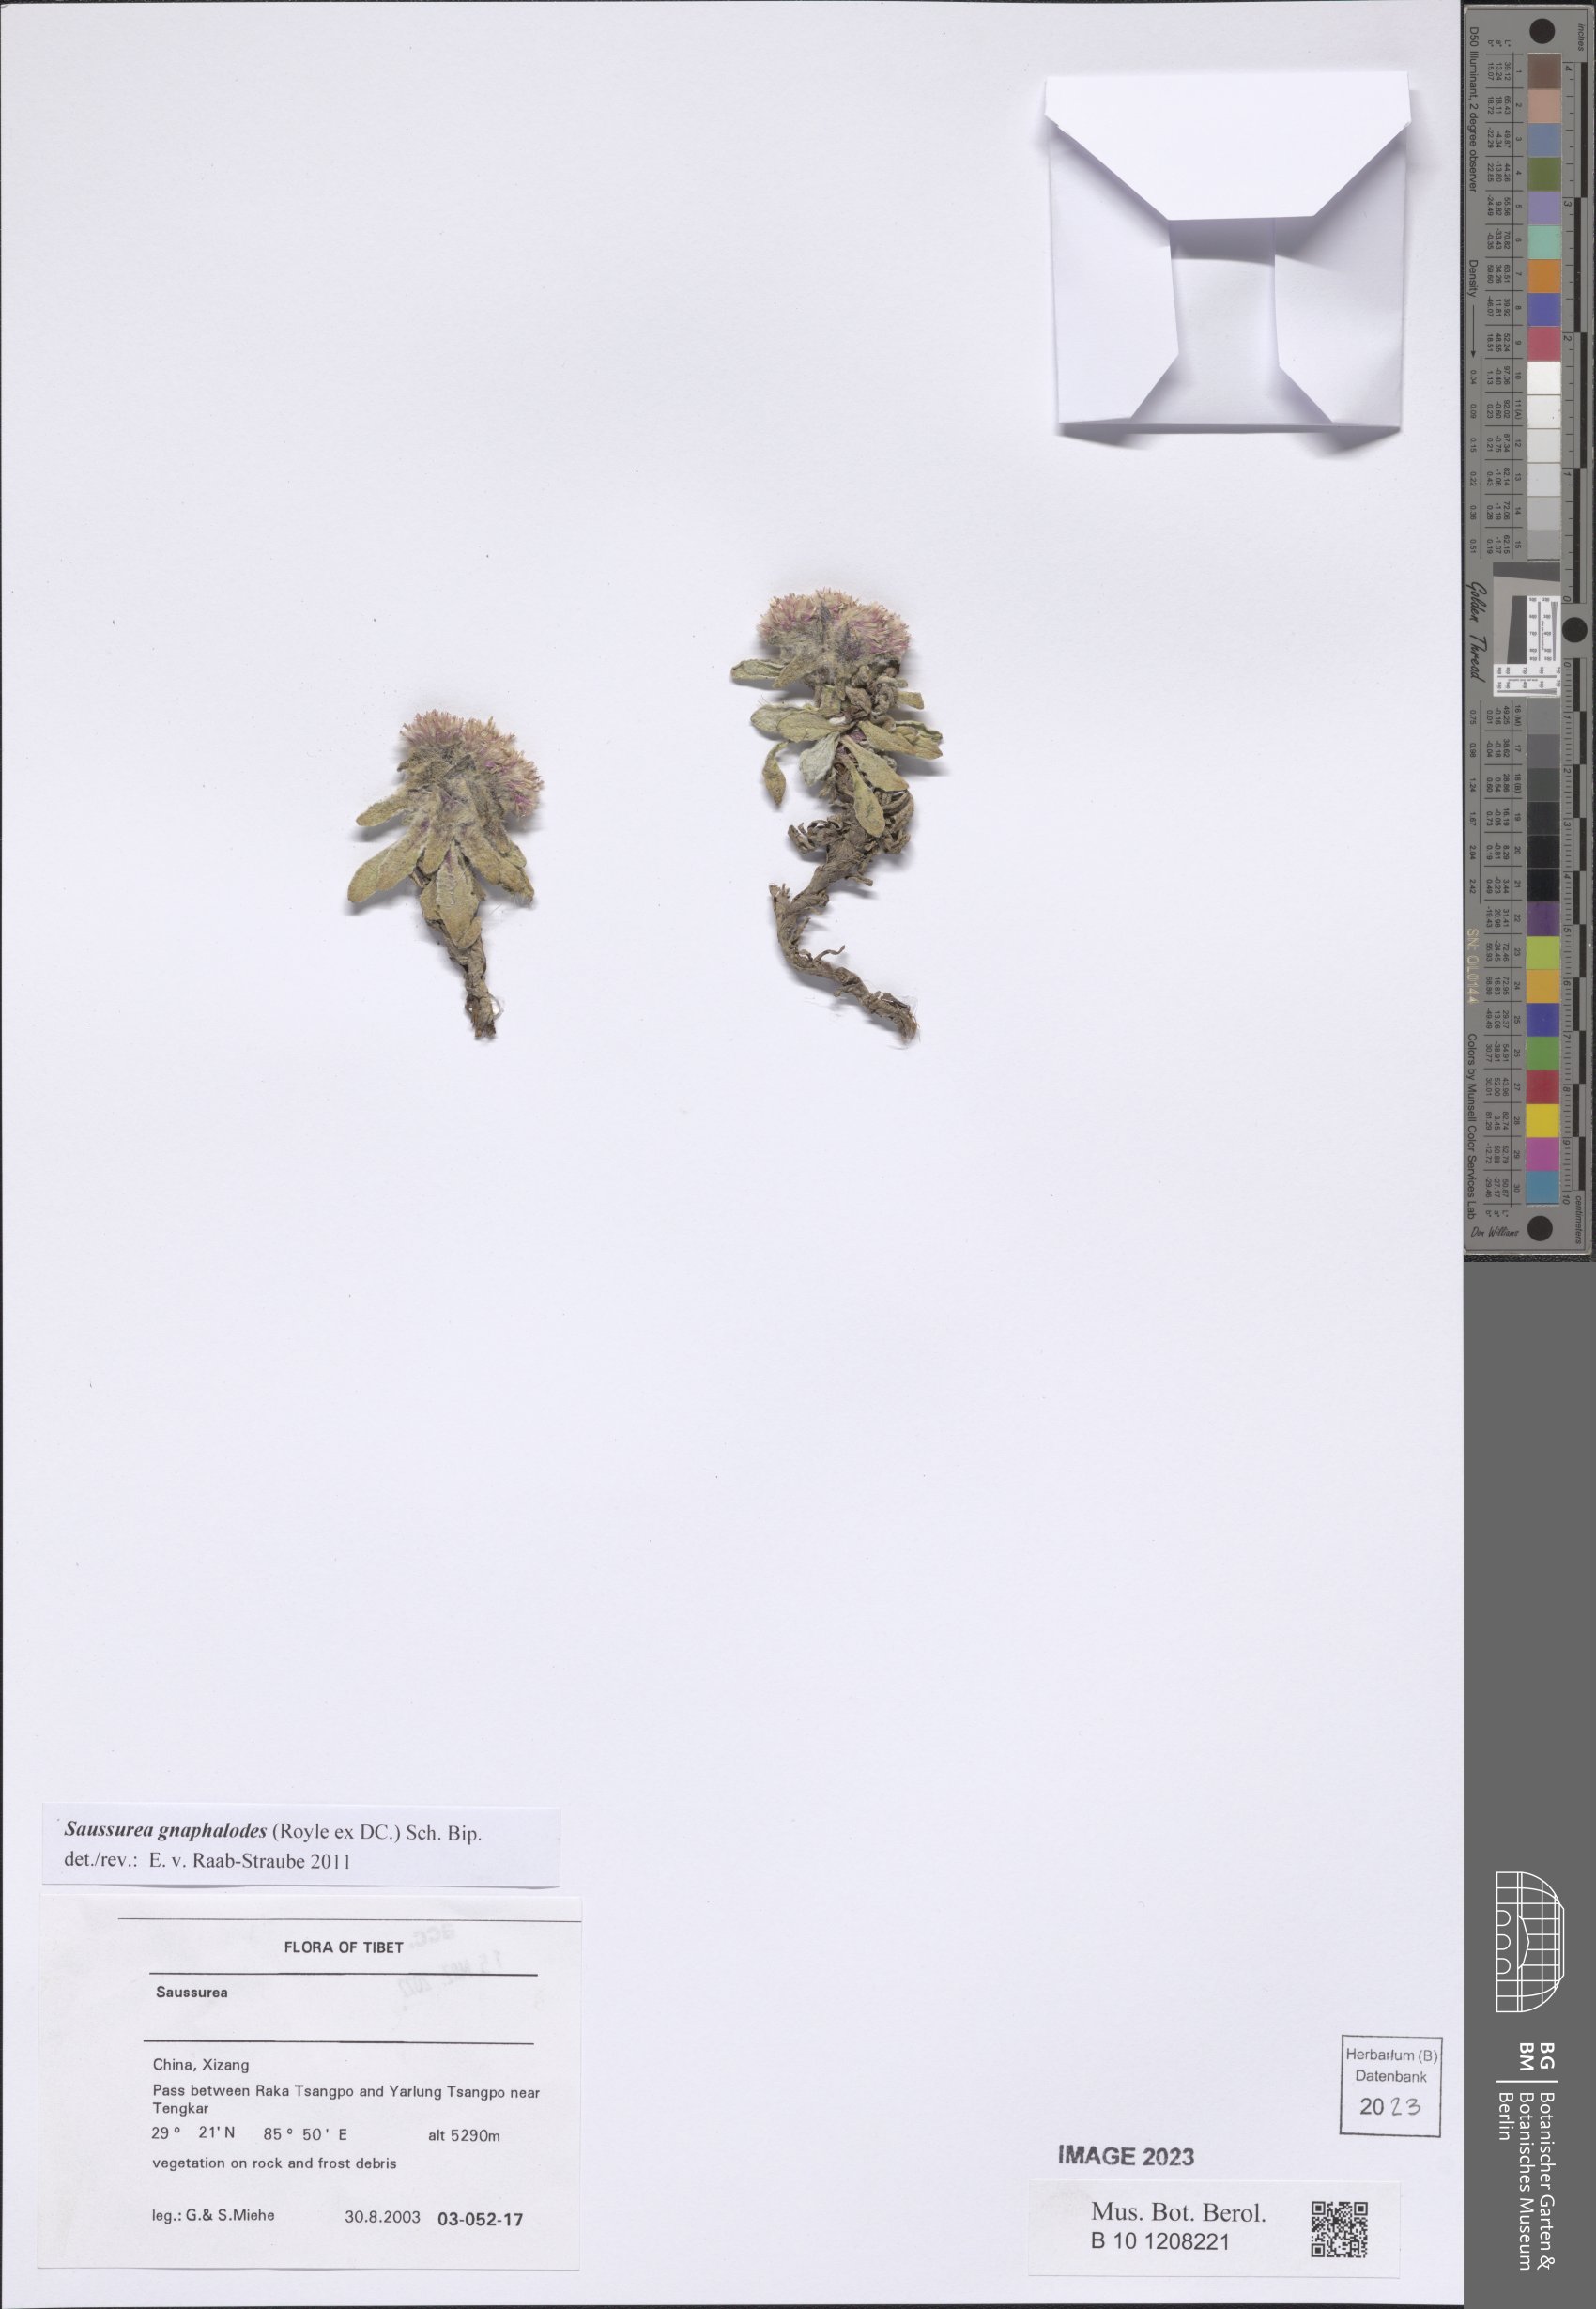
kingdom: Plantae
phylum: Tracheophyta
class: Magnoliopsida
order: Asterales
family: Asteraceae
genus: Saussurea
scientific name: Saussurea gnaphalodes
